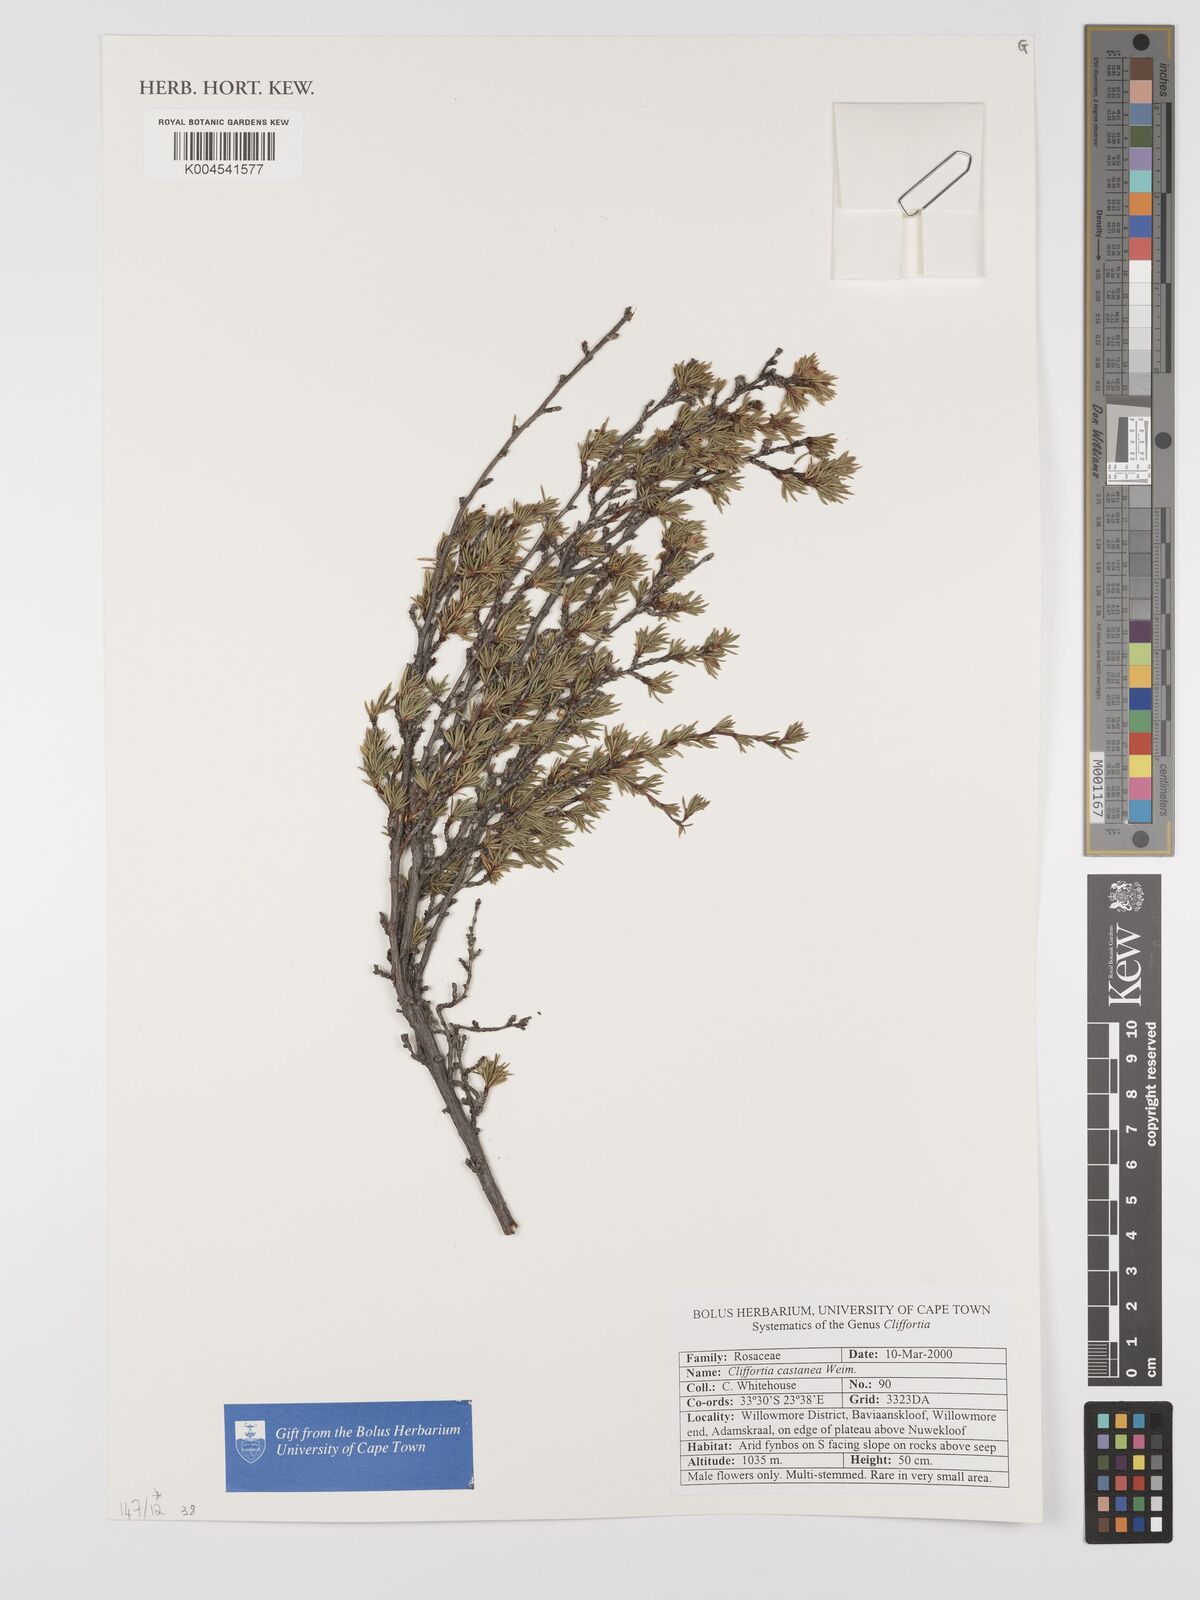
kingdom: Plantae
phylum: Tracheophyta
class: Magnoliopsida
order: Rosales
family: Rosaceae
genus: Cliffortia
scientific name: Cliffortia castanea
